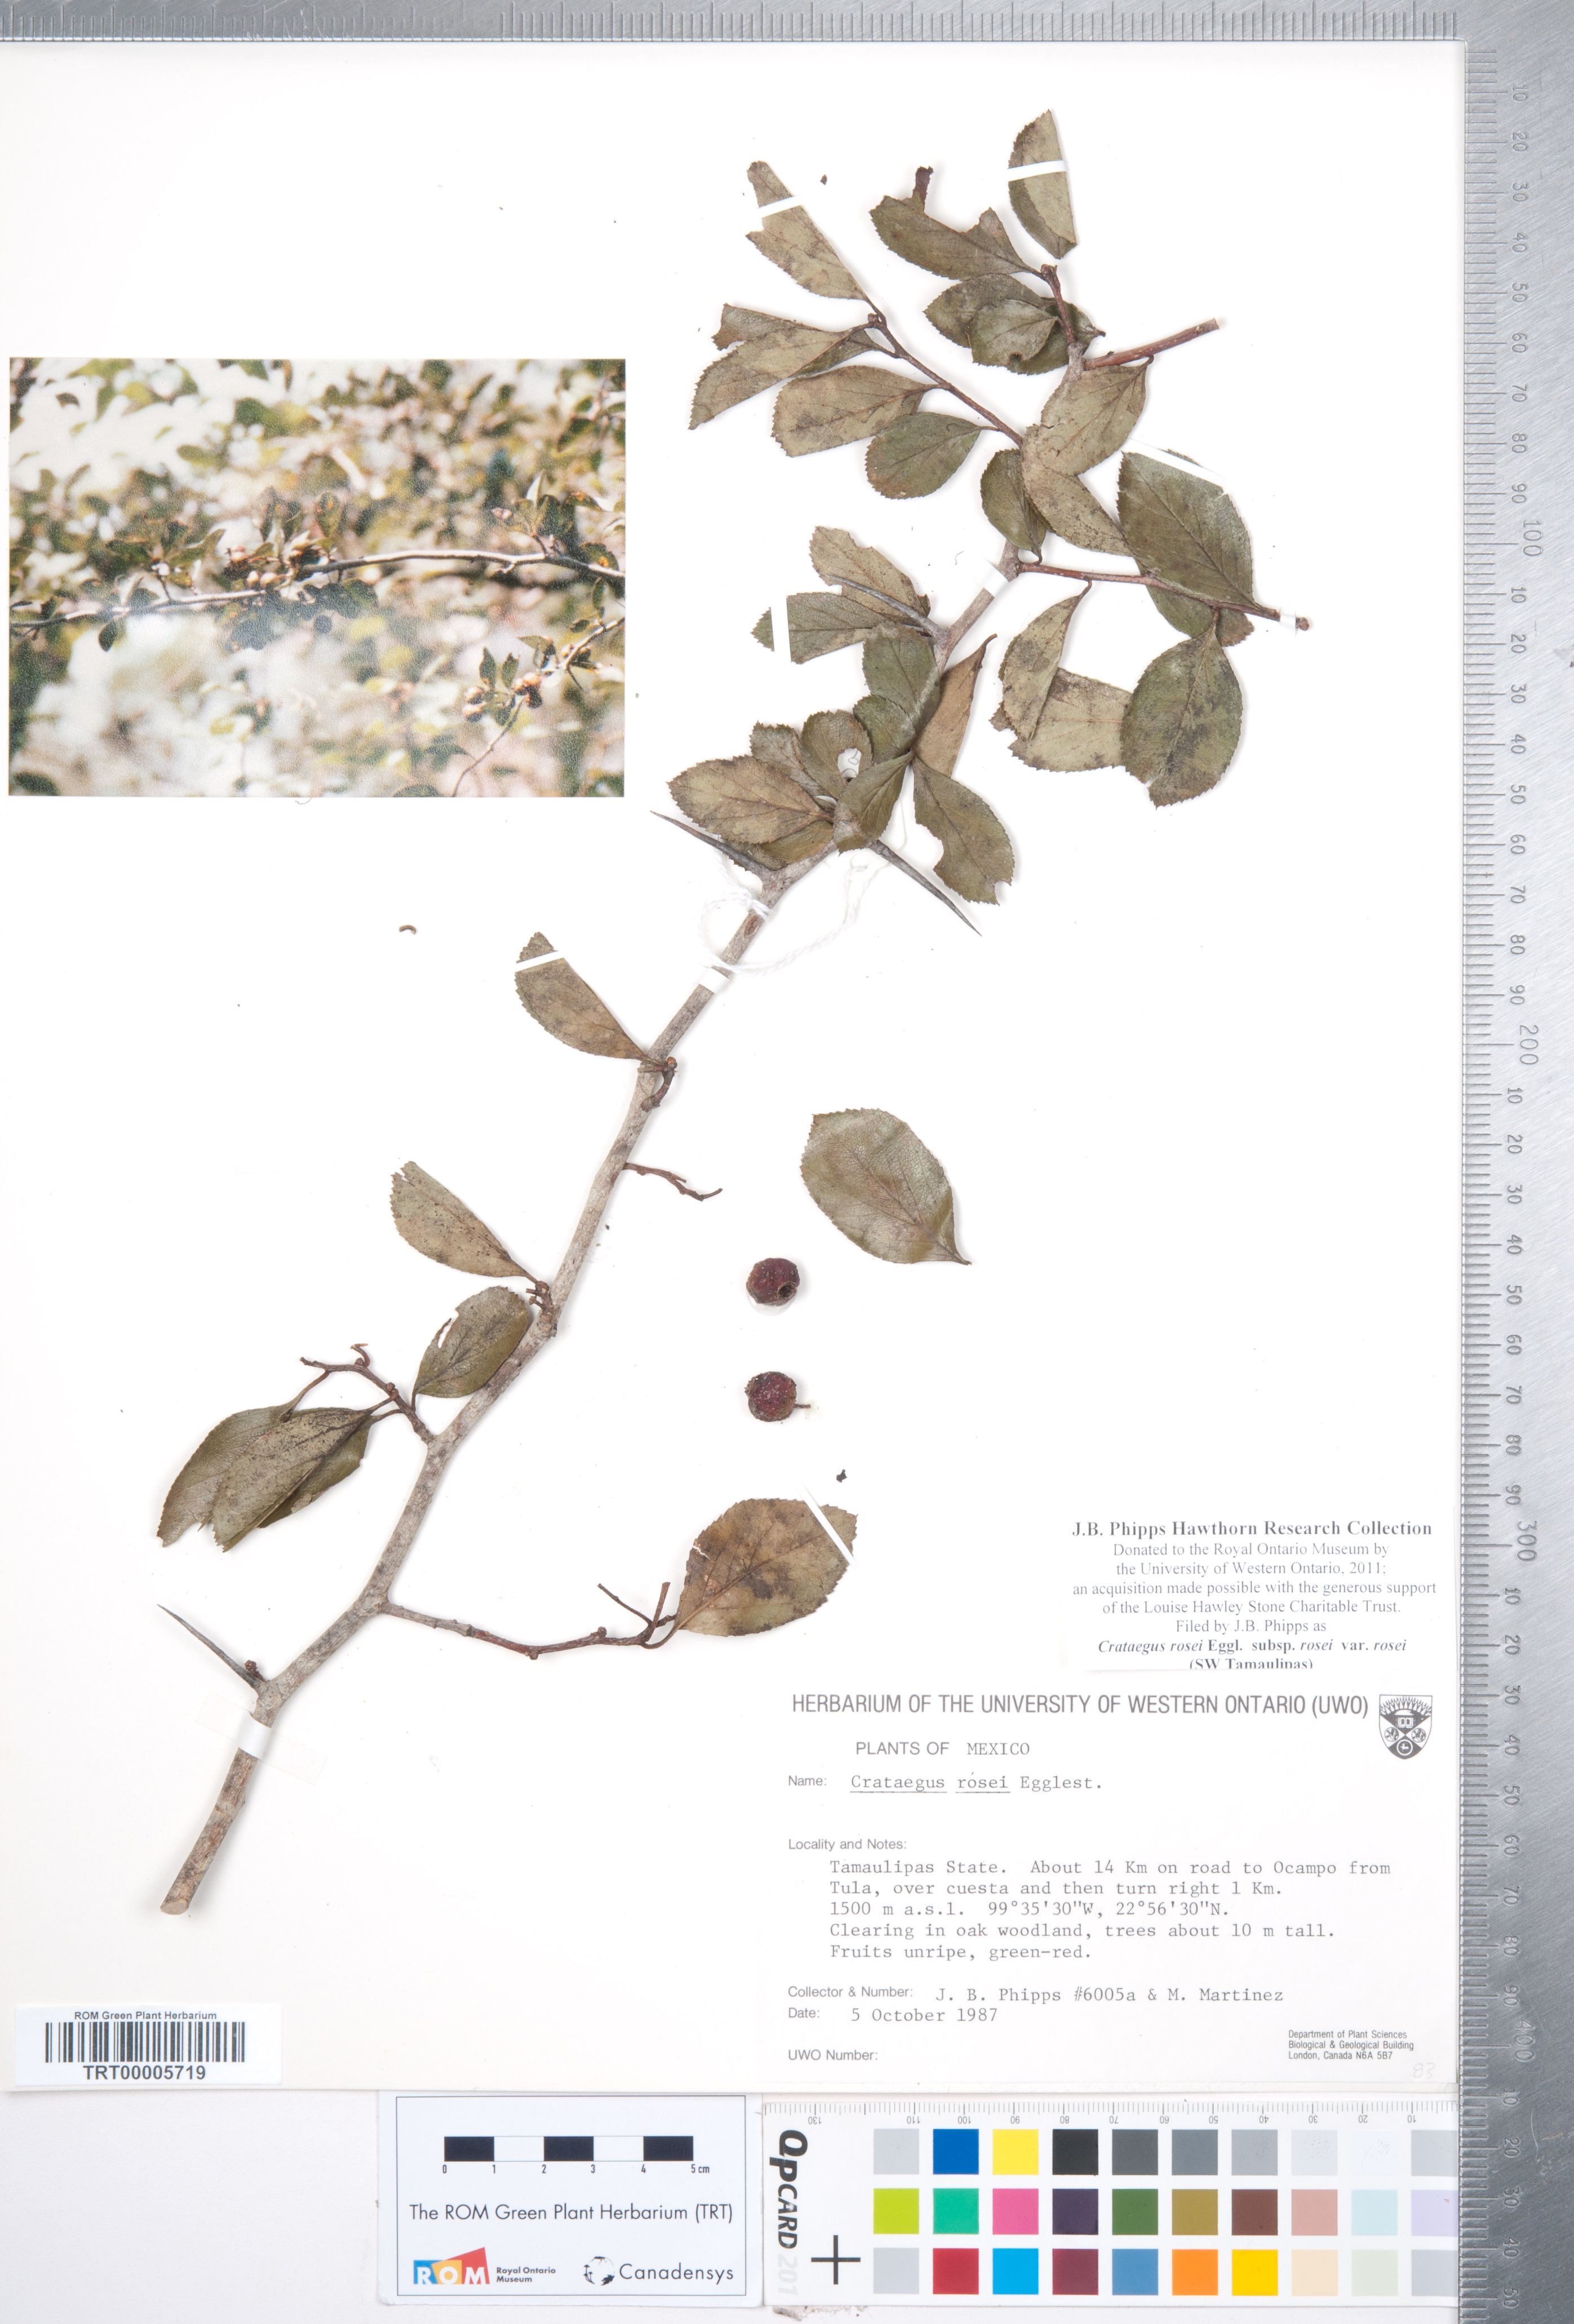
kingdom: Plantae
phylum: Tracheophyta
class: Magnoliopsida
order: Rosales
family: Rosaceae
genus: Crataegus
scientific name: Crataegus rosei
